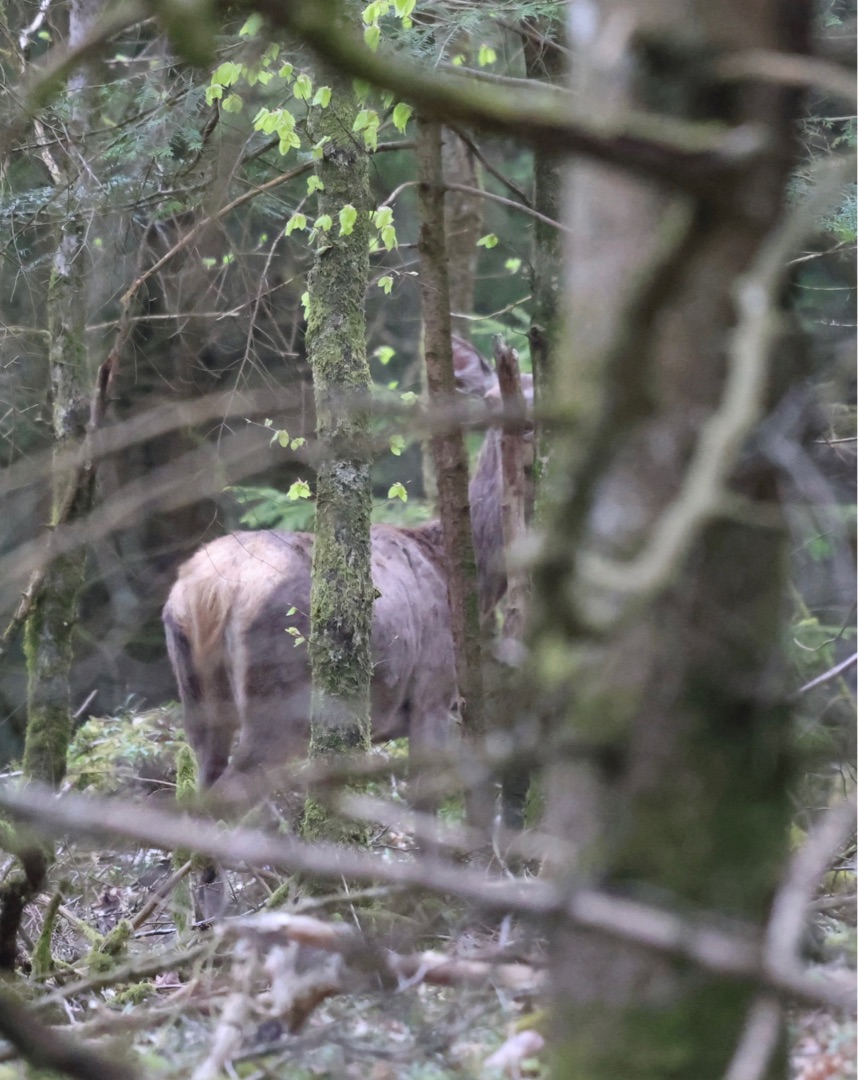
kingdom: Animalia
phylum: Chordata
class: Mammalia
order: Artiodactyla
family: Cervidae
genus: Cervus
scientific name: Cervus elaphus
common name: Krondyr
